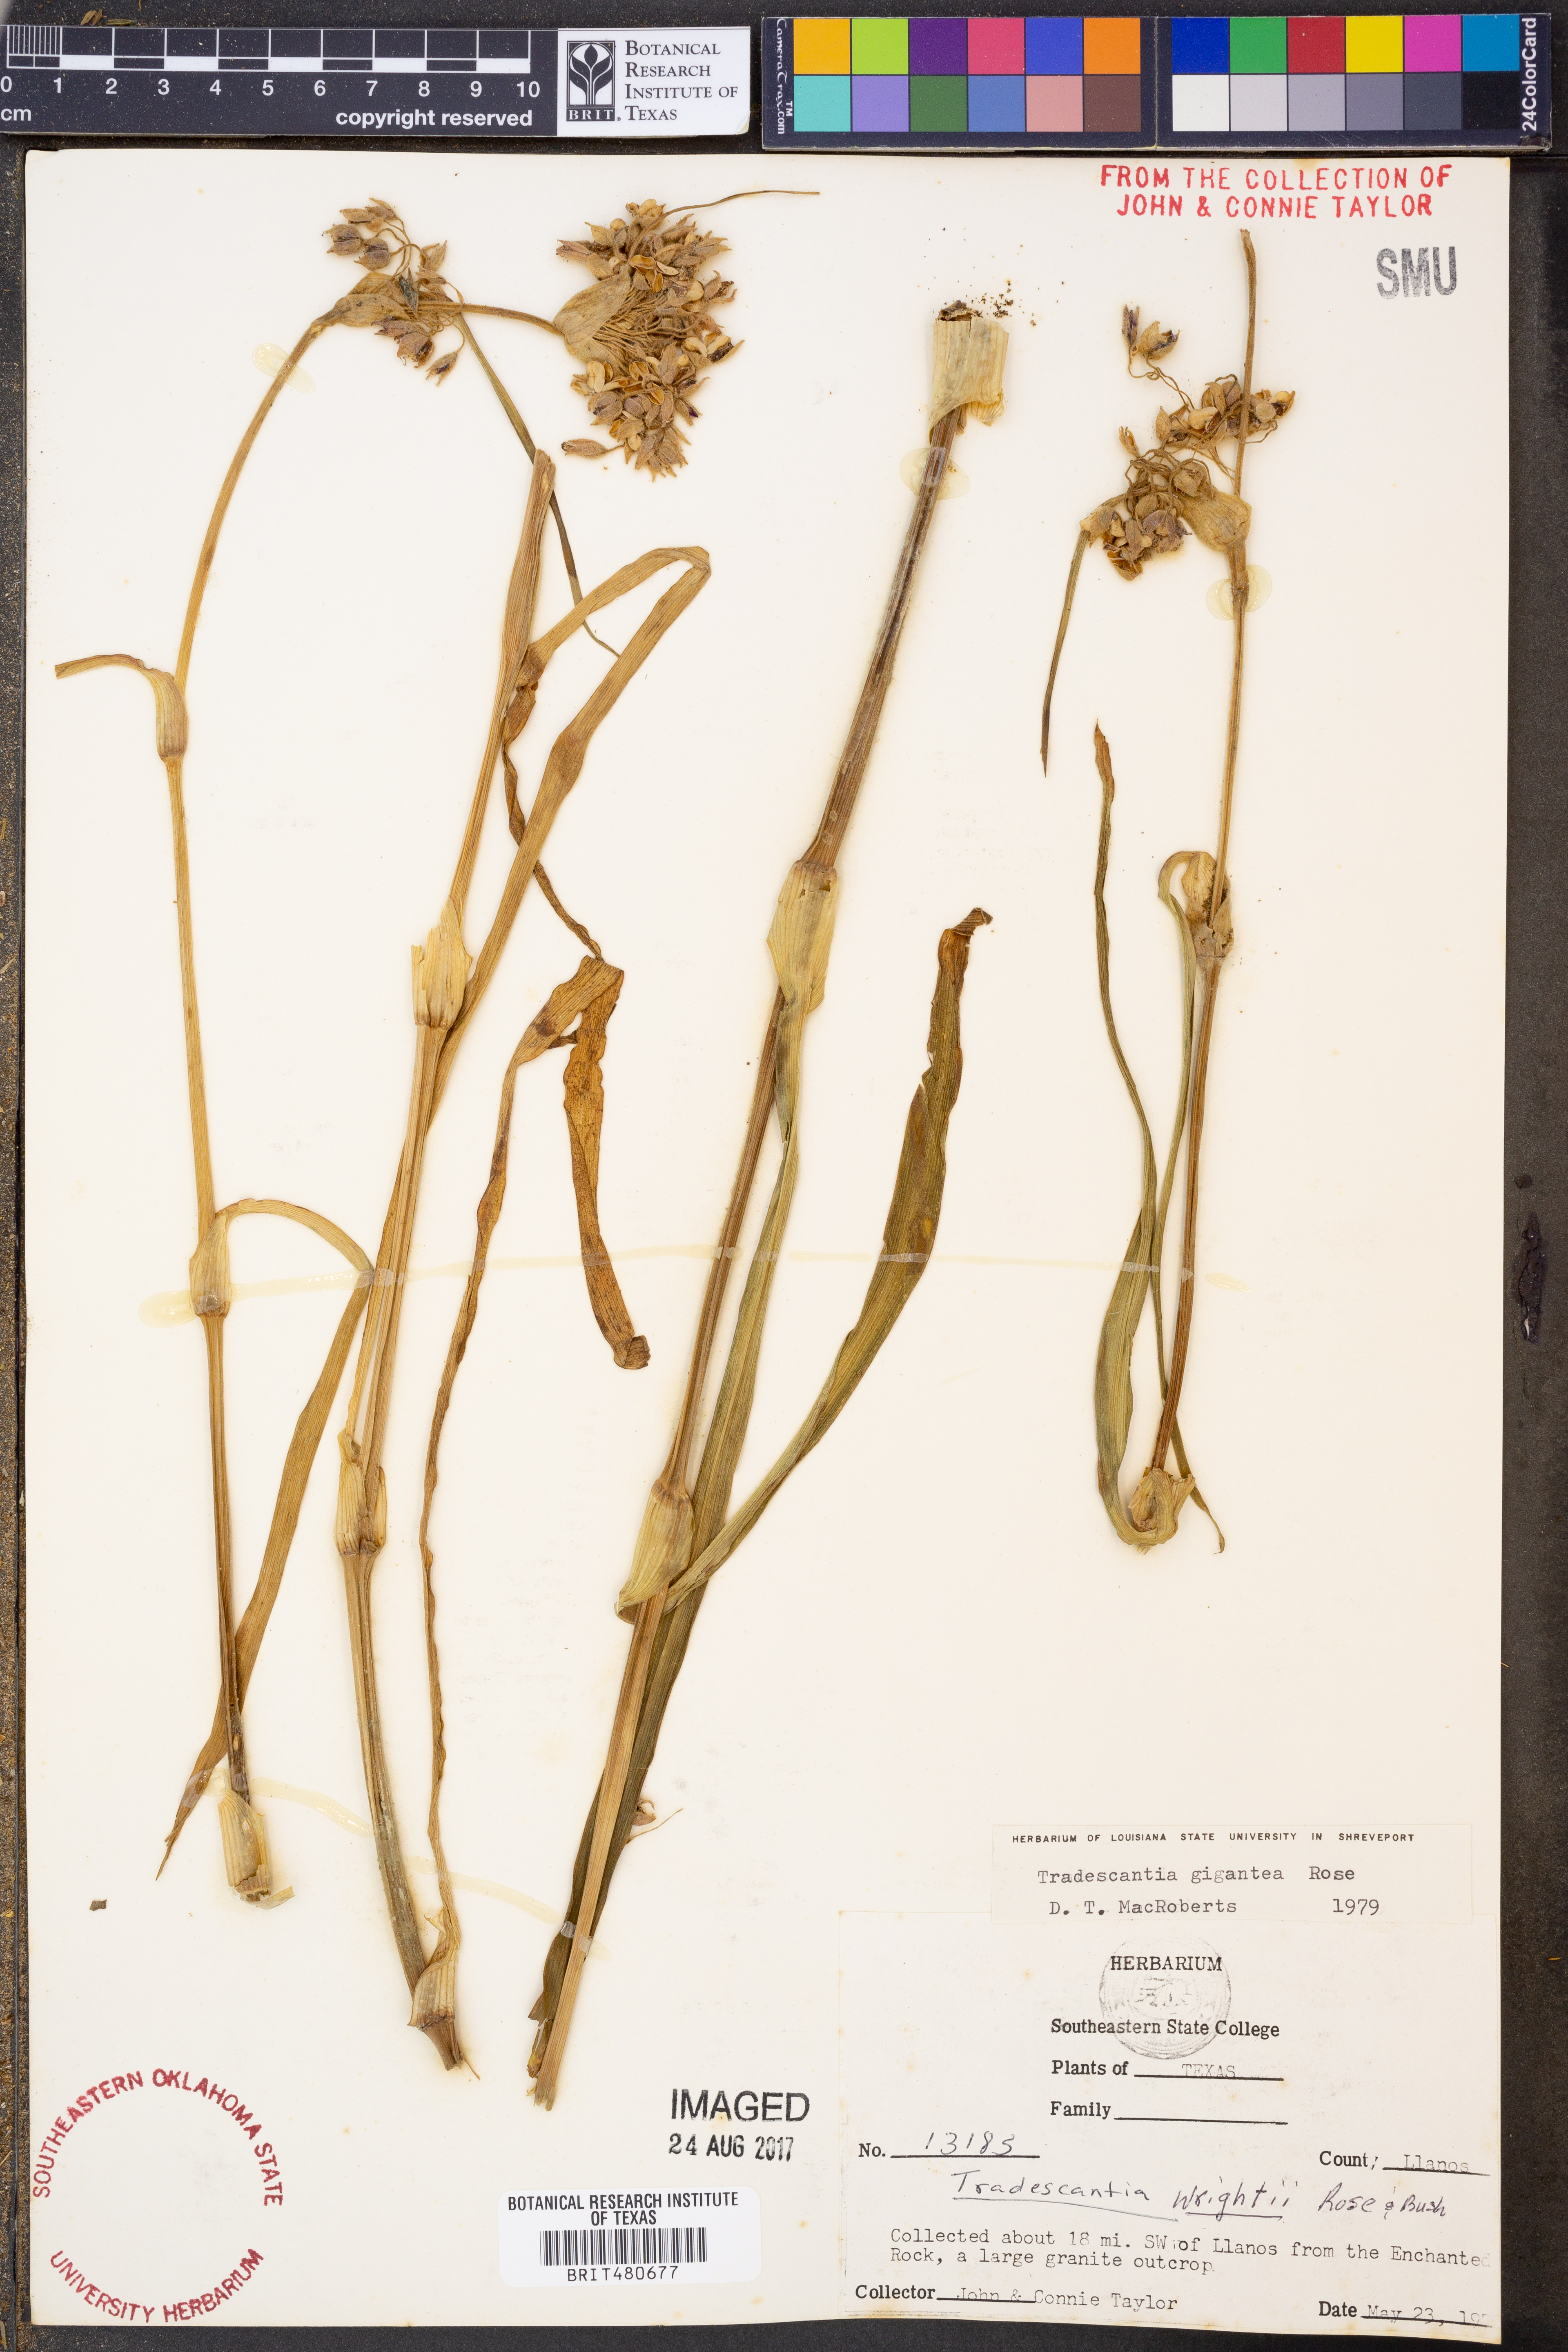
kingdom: Plantae
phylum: Tracheophyta
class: Liliopsida
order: Commelinales
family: Commelinaceae
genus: Tradescantia
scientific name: Tradescantia gigantea
